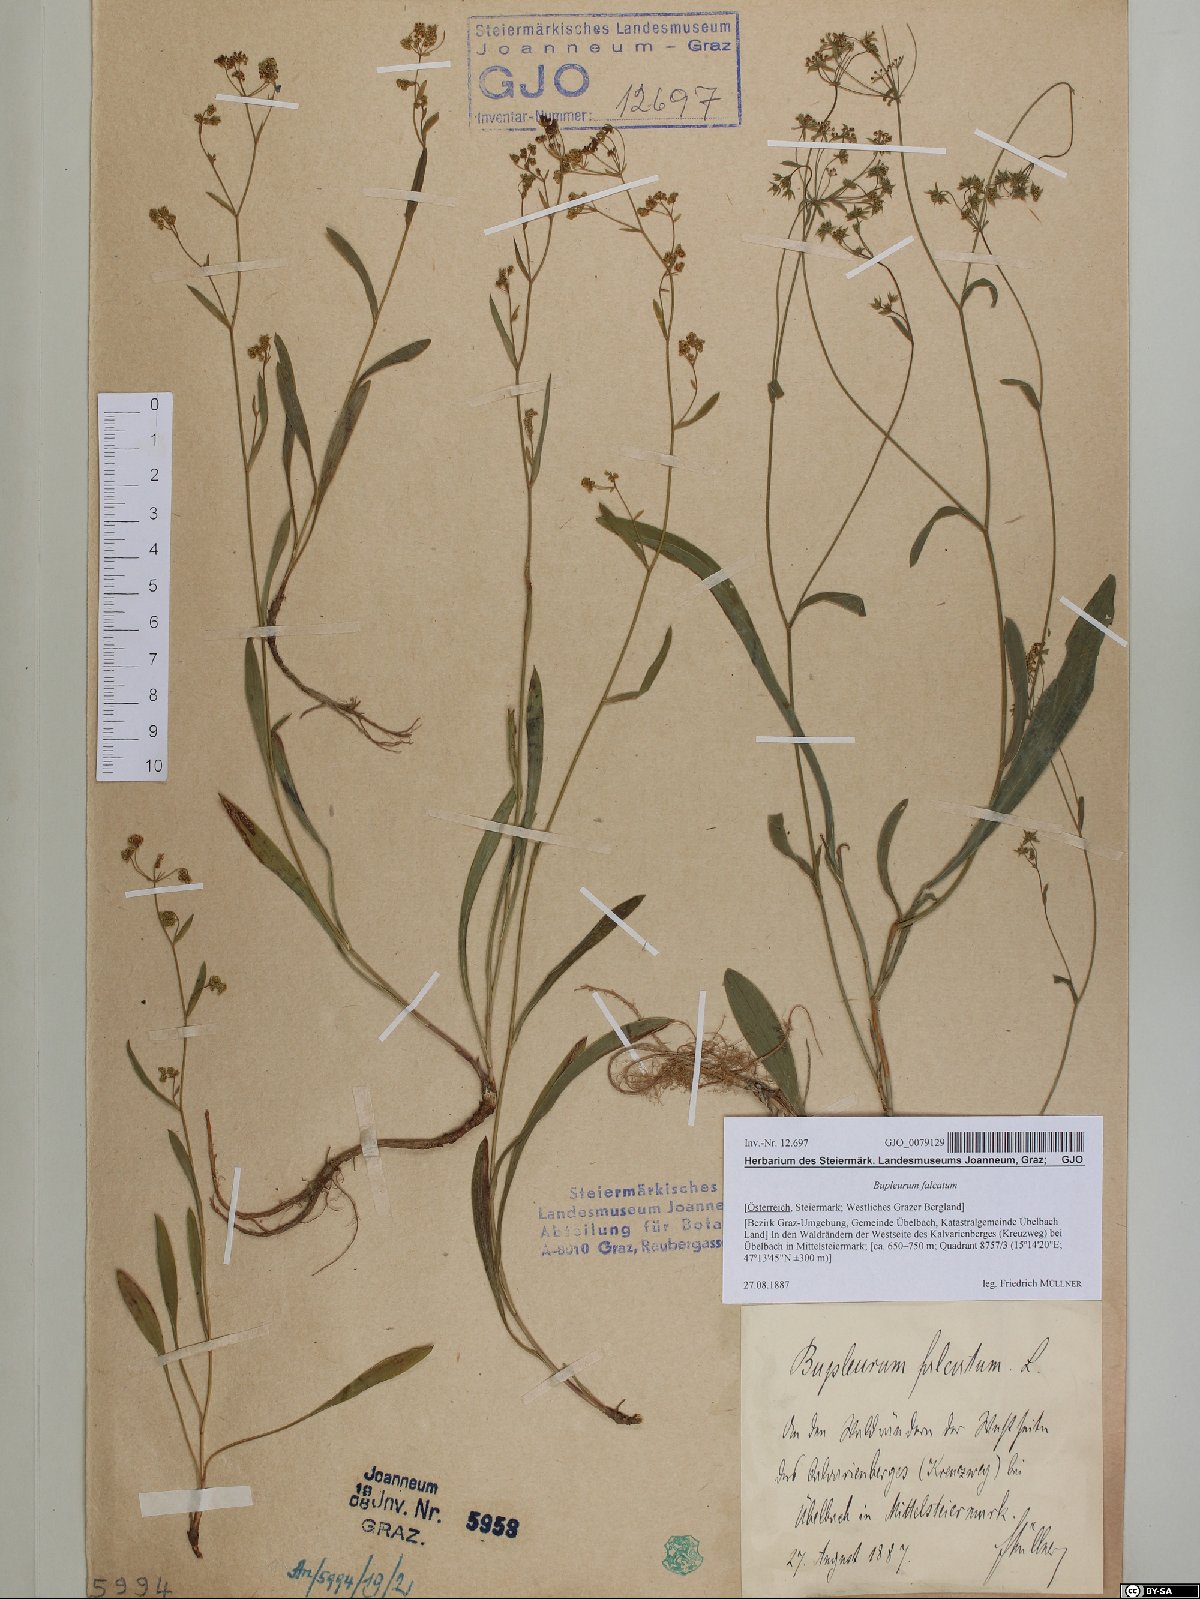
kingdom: Plantae
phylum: Tracheophyta
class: Magnoliopsida
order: Apiales
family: Apiaceae
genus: Bupleurum
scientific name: Bupleurum falcatum
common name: Sickle-leaved hare's-ear
